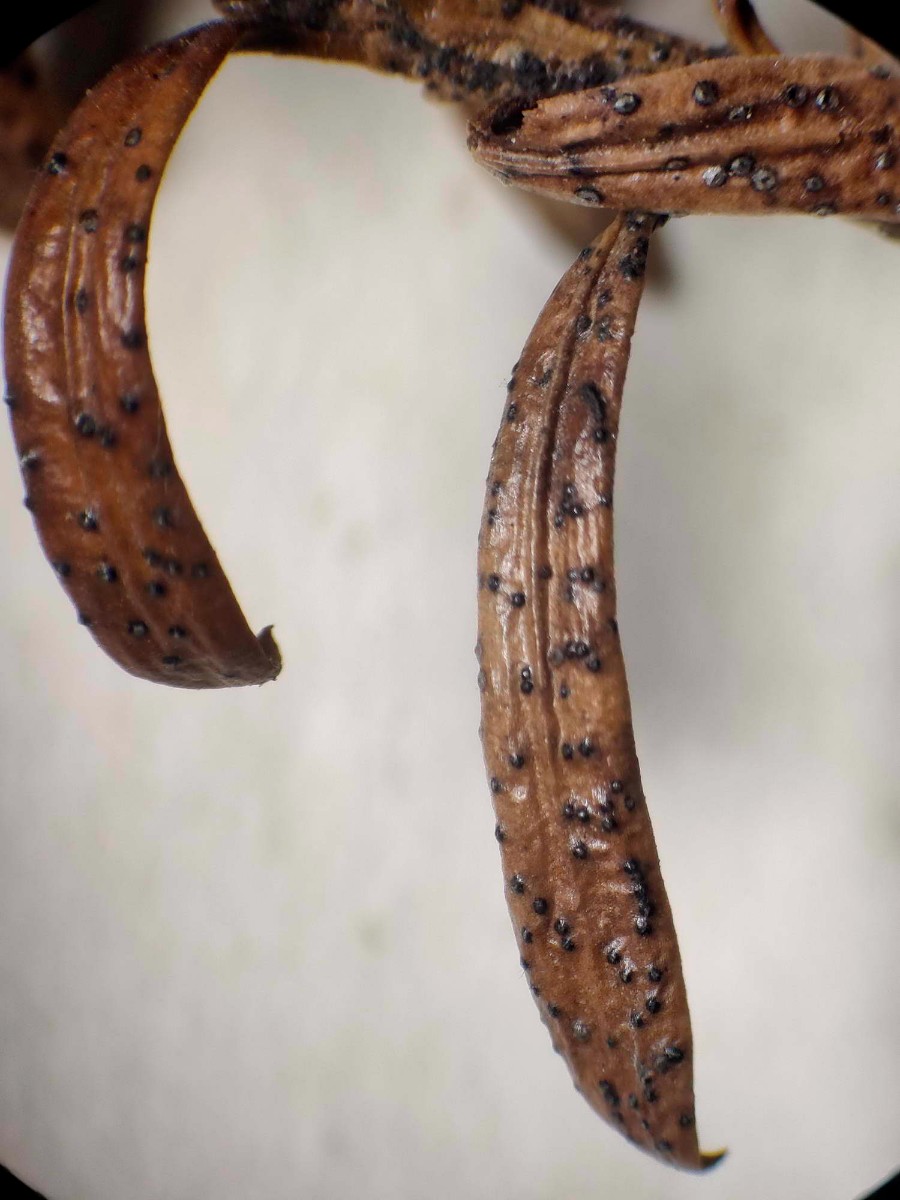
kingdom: Fungi
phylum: Ascomycota
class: Dothideomycetes
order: Botryosphaeriales
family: Phyllostictaceae
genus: Phyllosticta
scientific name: Phyllosticta foliorum
